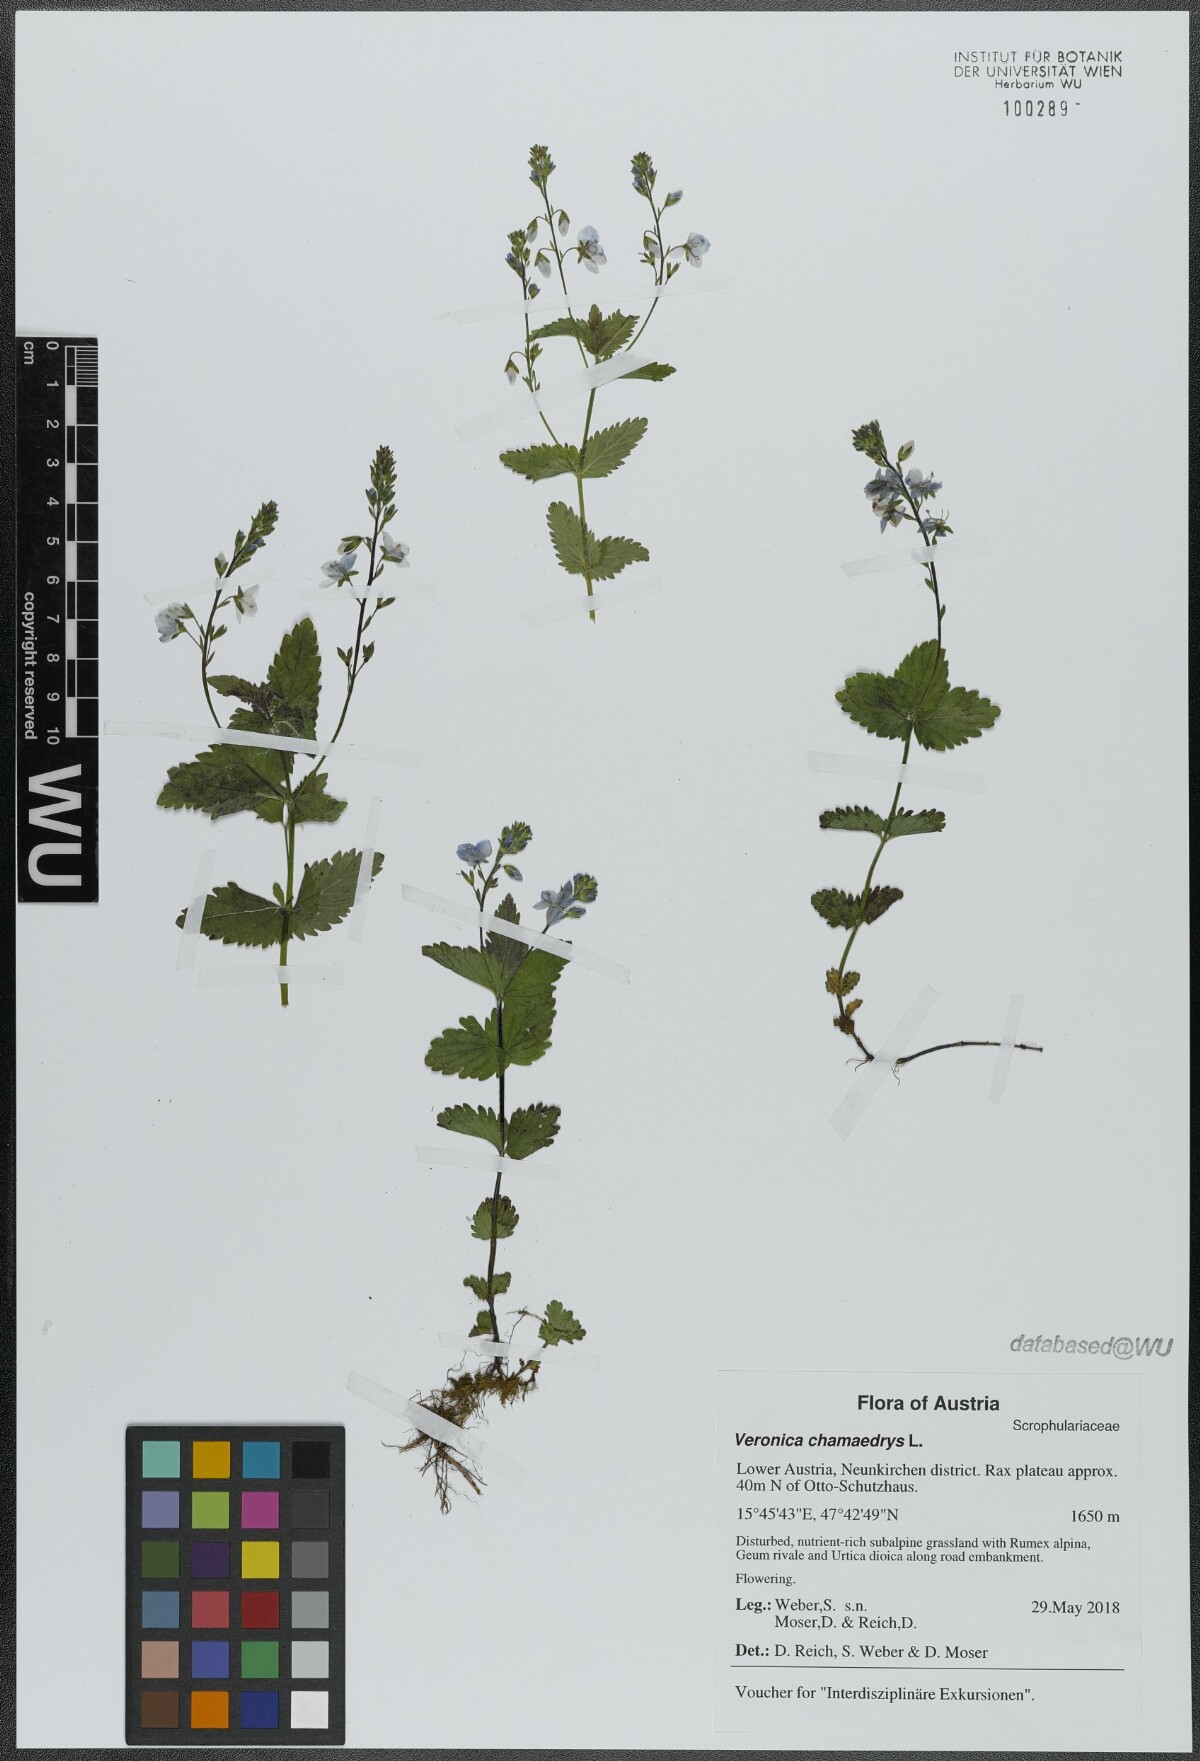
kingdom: Plantae
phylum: Tracheophyta
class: Magnoliopsida
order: Lamiales
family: Plantaginaceae
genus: Veronica
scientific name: Veronica chamaedrys
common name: Germander speedwell
